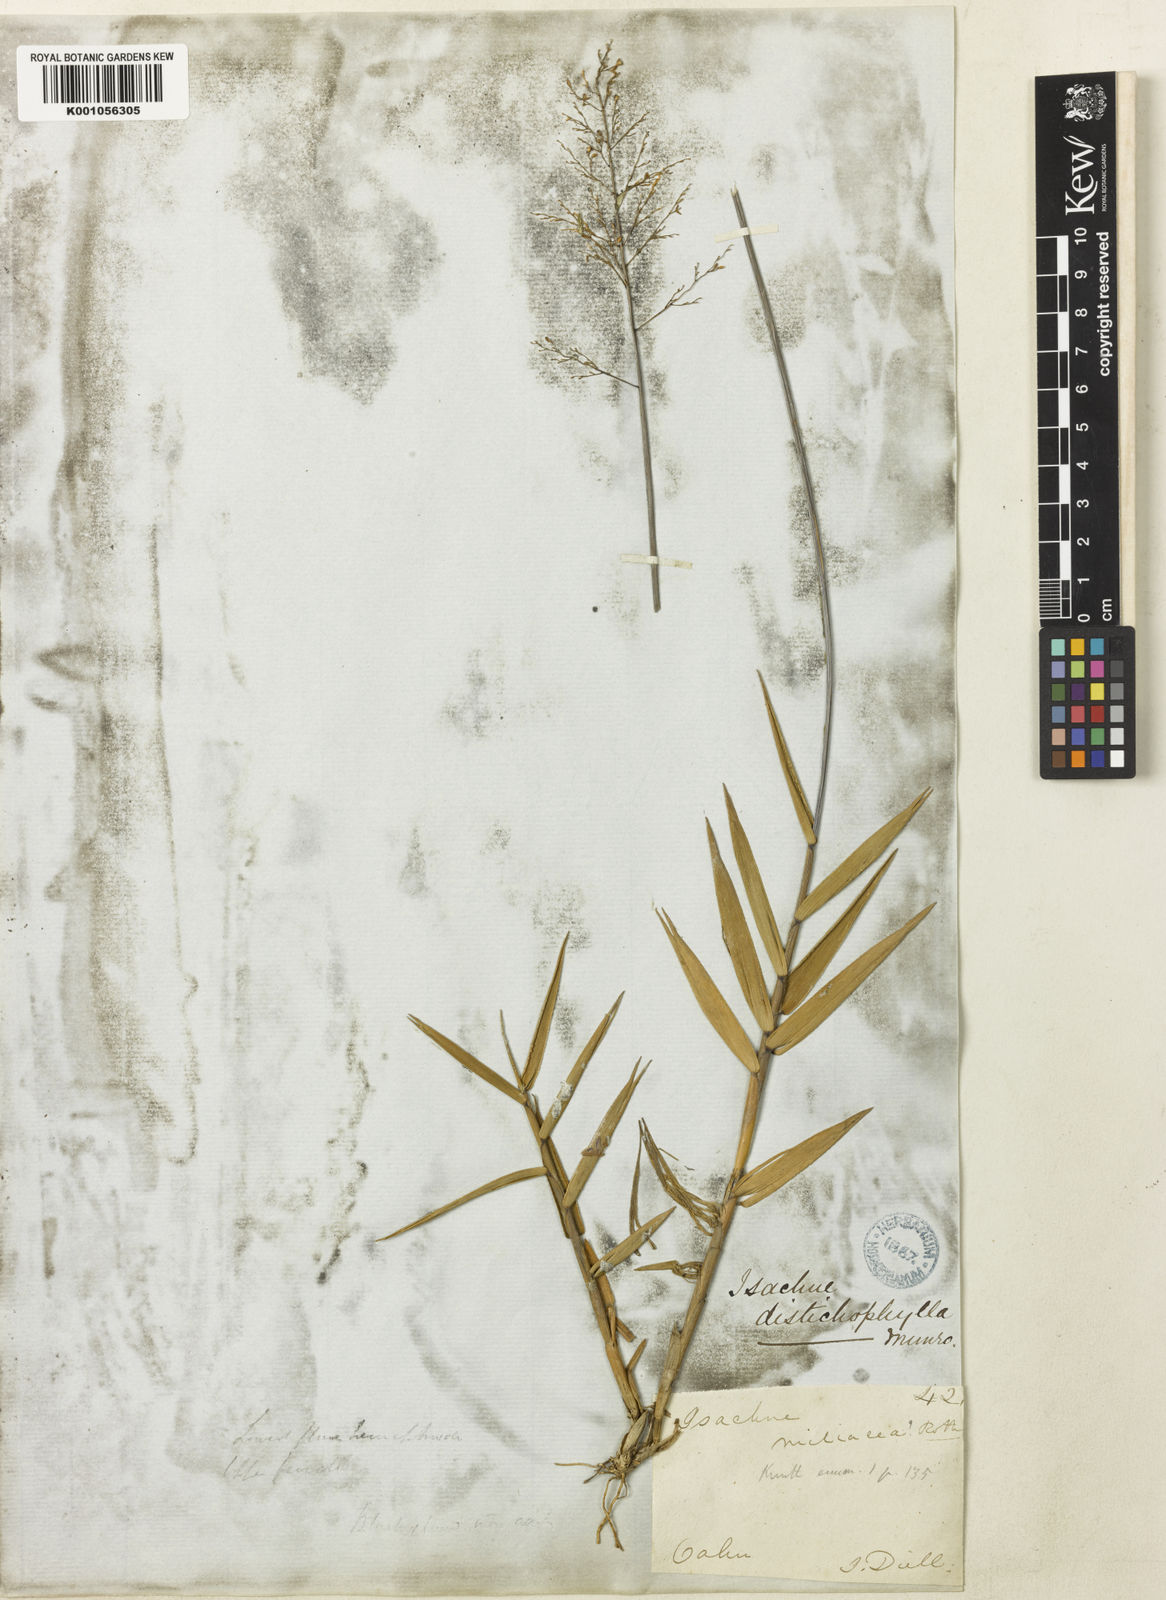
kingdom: Plantae
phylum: Tracheophyta
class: Liliopsida
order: Poales
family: Poaceae
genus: Isachne
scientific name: Isachne distichophylla
